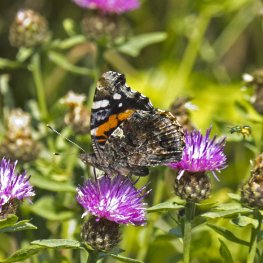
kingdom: Animalia
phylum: Arthropoda
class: Insecta
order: Lepidoptera
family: Nymphalidae
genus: Vanessa
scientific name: Vanessa atalanta
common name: Red Admiral
